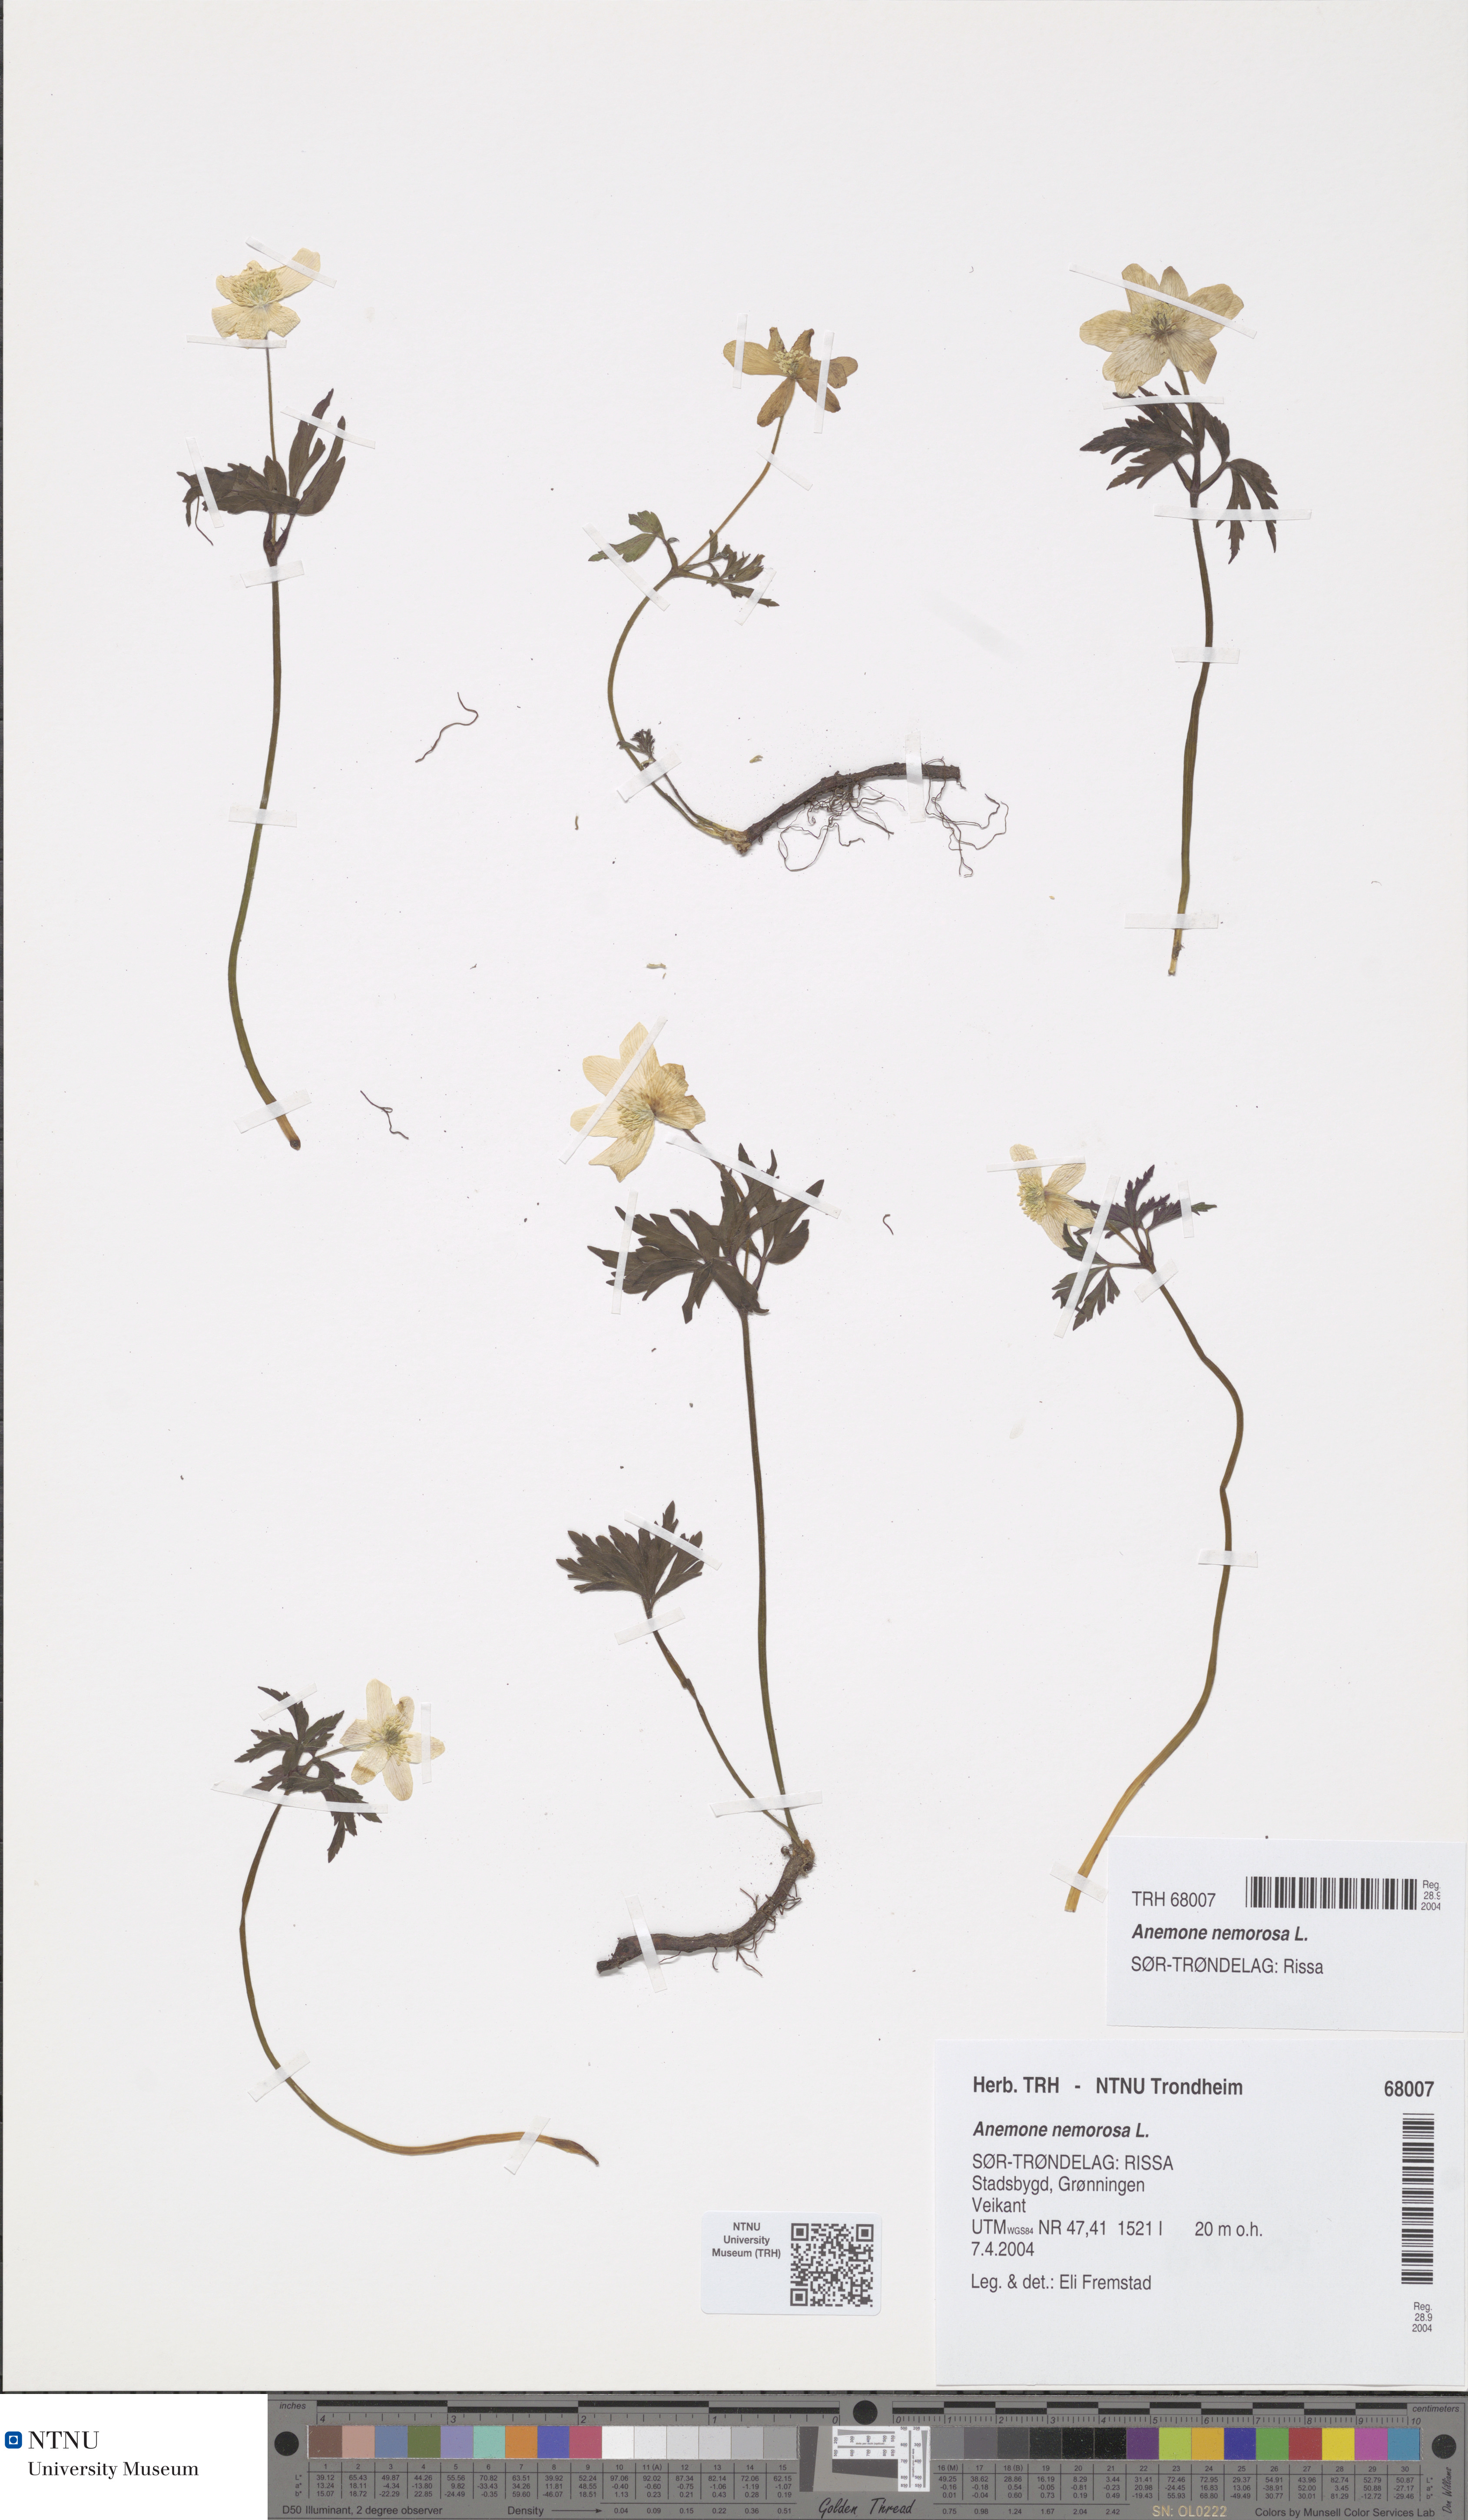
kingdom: Plantae
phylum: Tracheophyta
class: Magnoliopsida
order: Ranunculales
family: Ranunculaceae
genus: Anemone
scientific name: Anemone nemorosa
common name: Wood anemone
